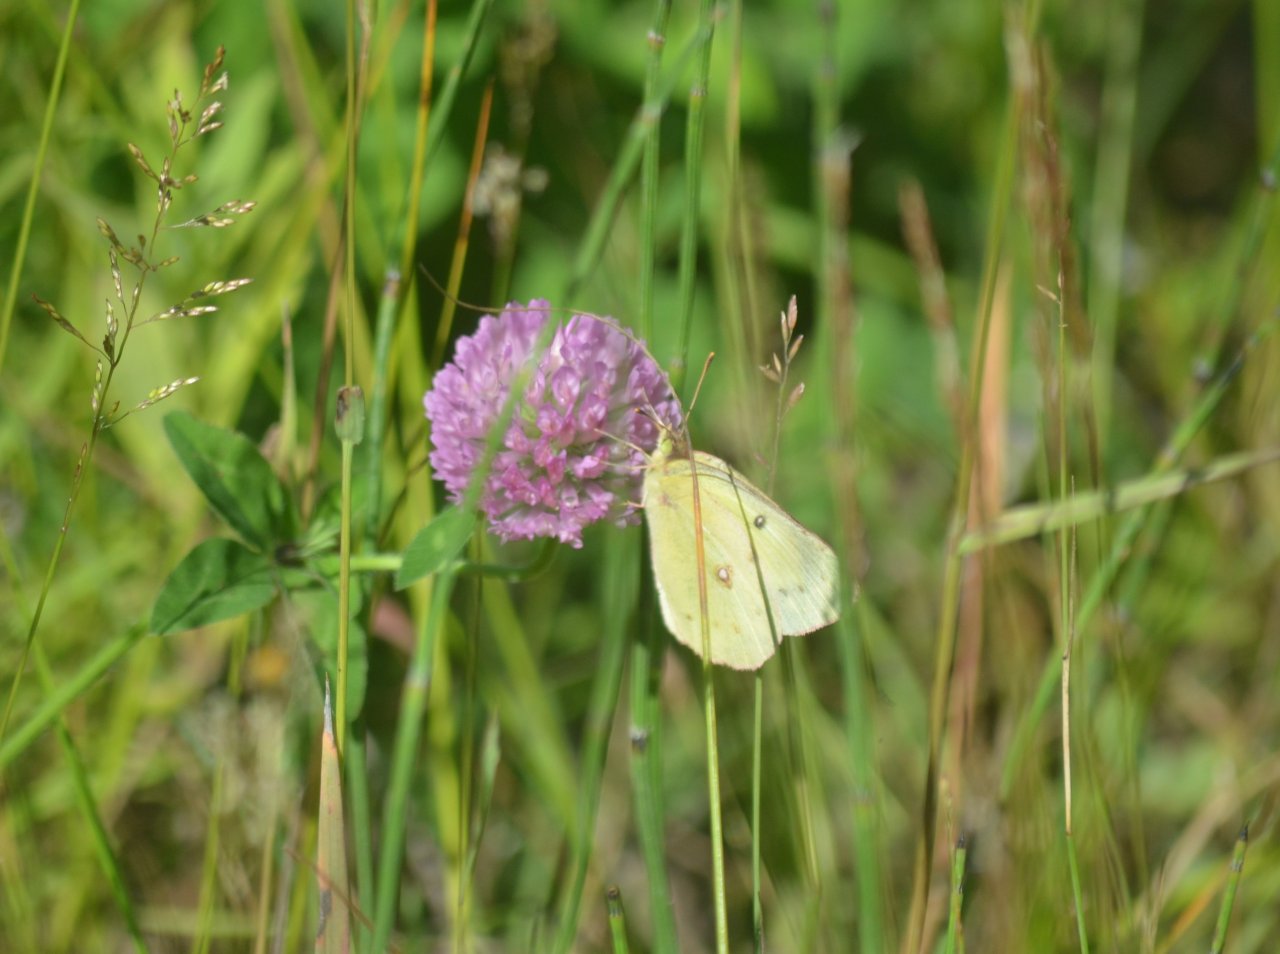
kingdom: Animalia
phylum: Arthropoda
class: Insecta
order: Lepidoptera
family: Pieridae
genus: Colias
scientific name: Colias philodice
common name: Clouded Sulphur
